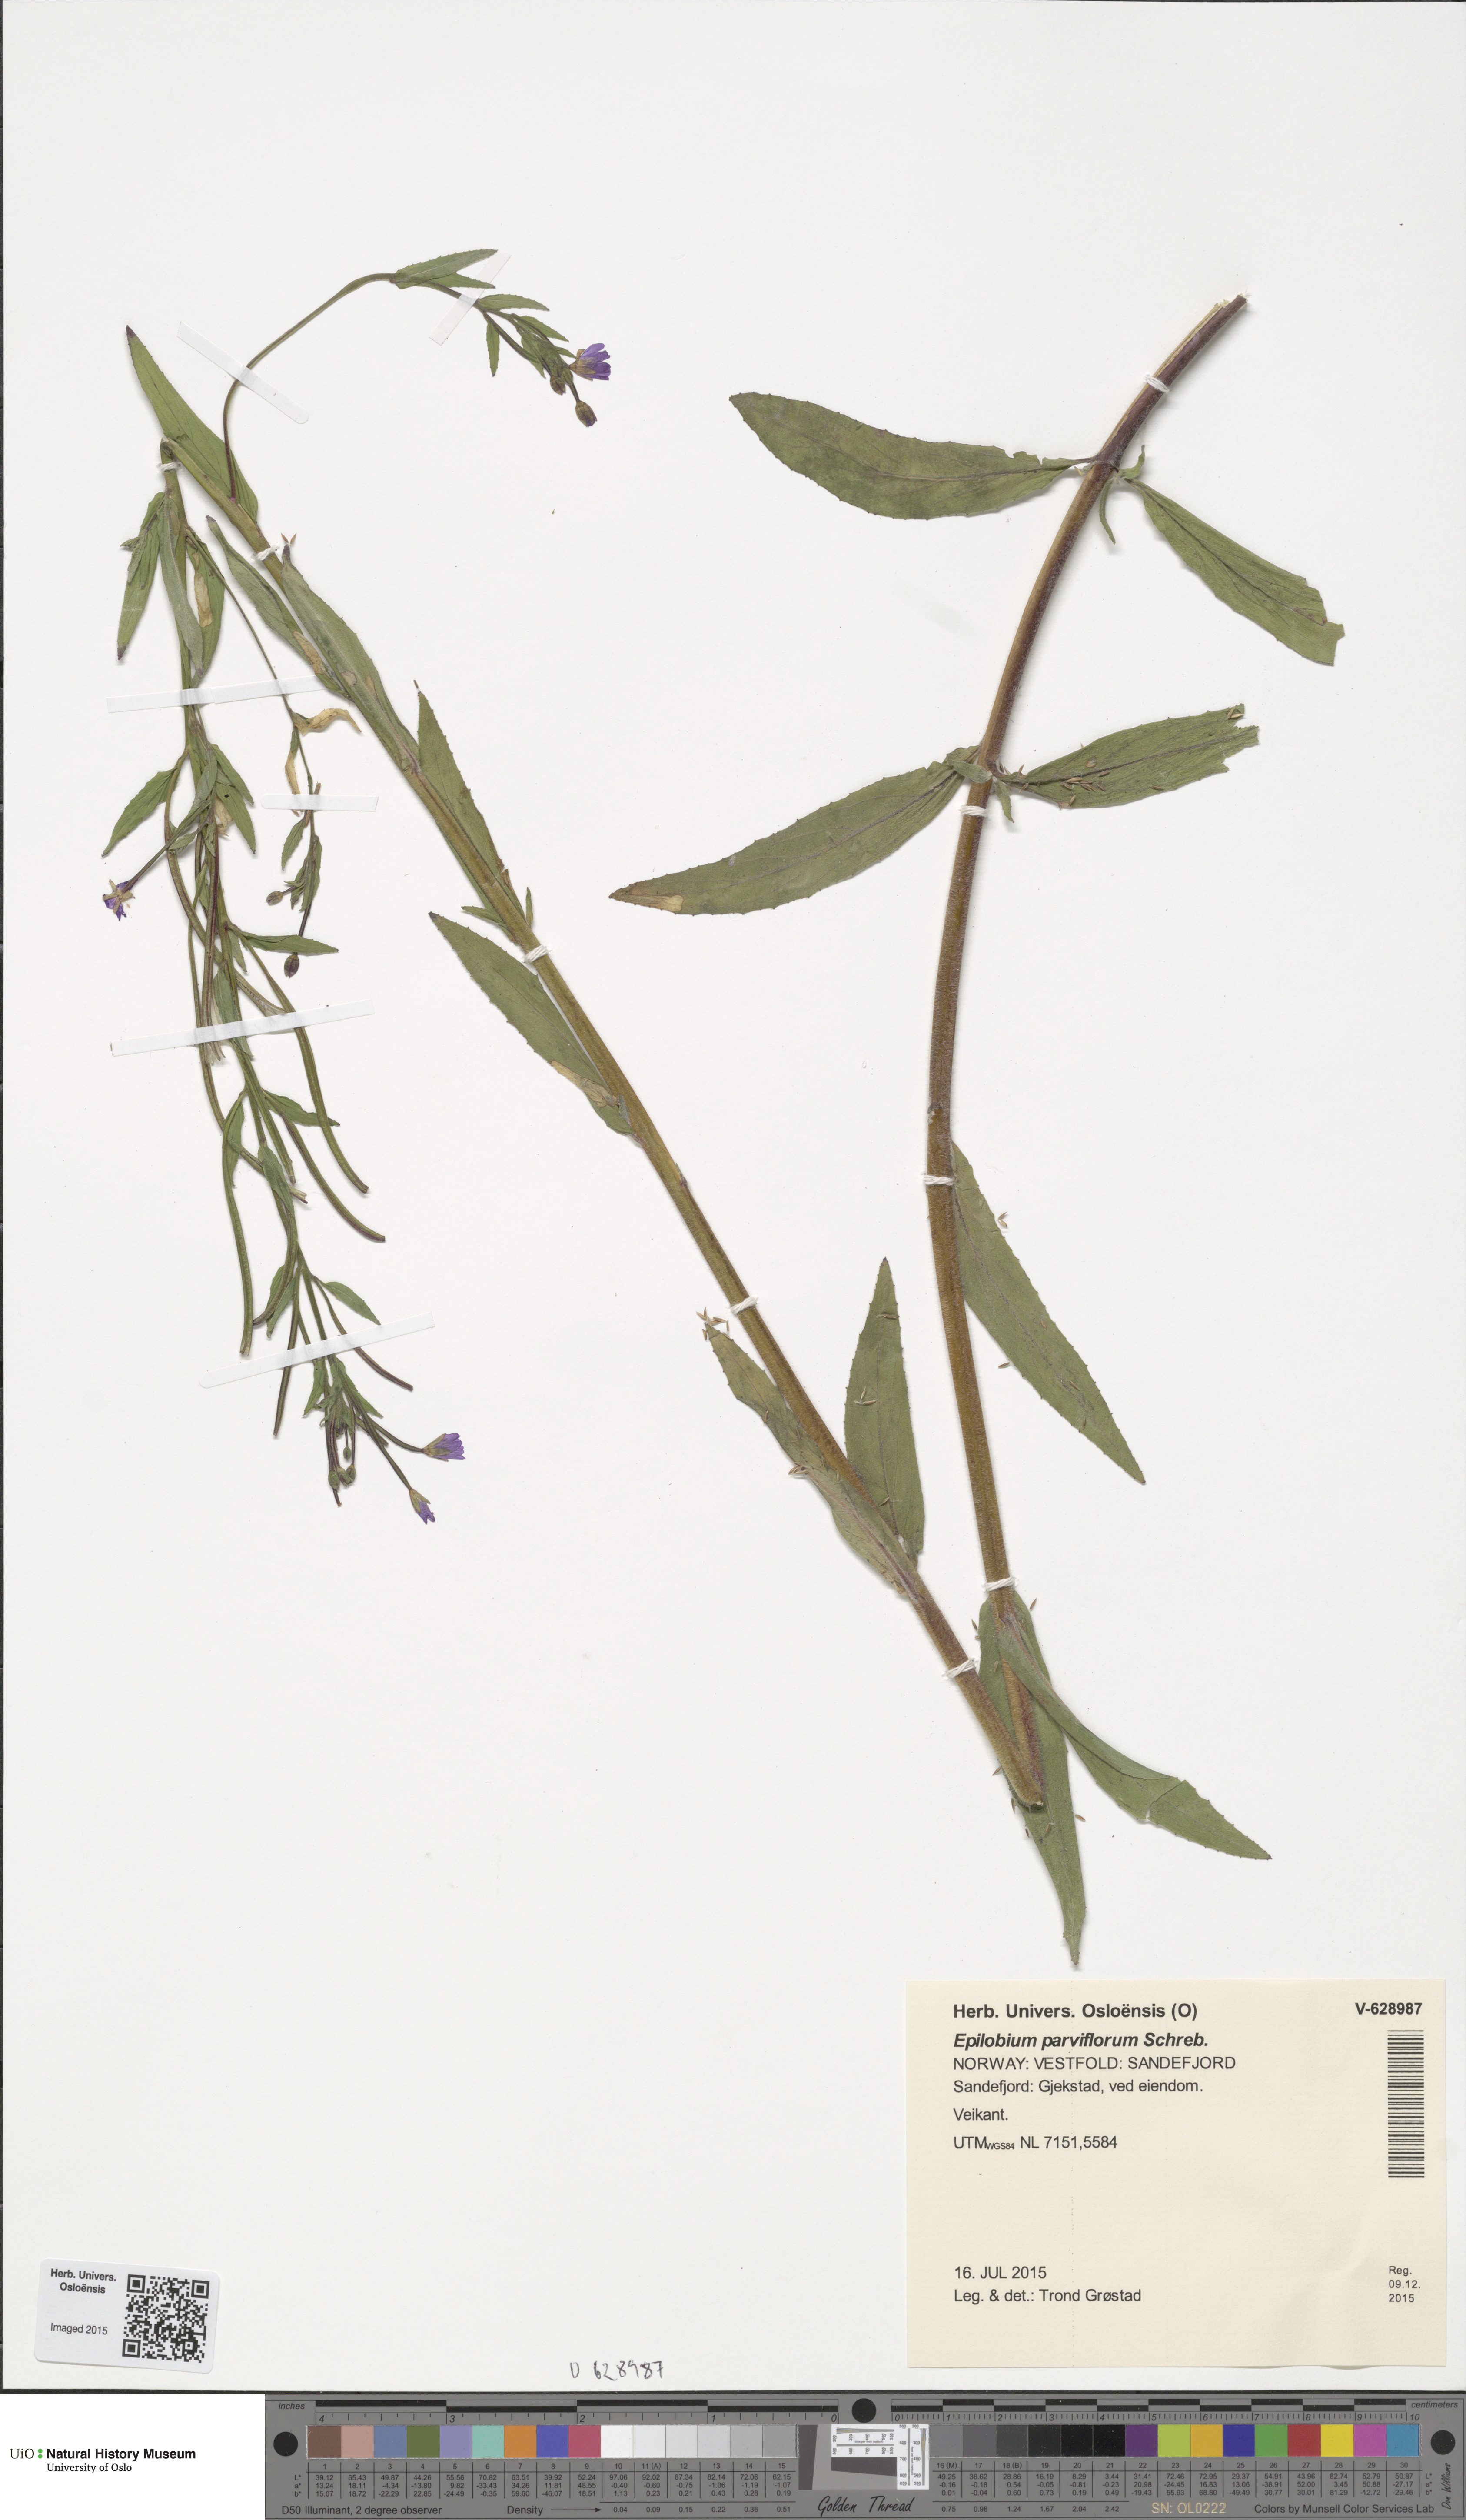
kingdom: Plantae
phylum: Tracheophyta
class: Magnoliopsida
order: Myrtales
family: Onagraceae
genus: Epilobium
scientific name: Epilobium parviflorum
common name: Hoary willowherb
